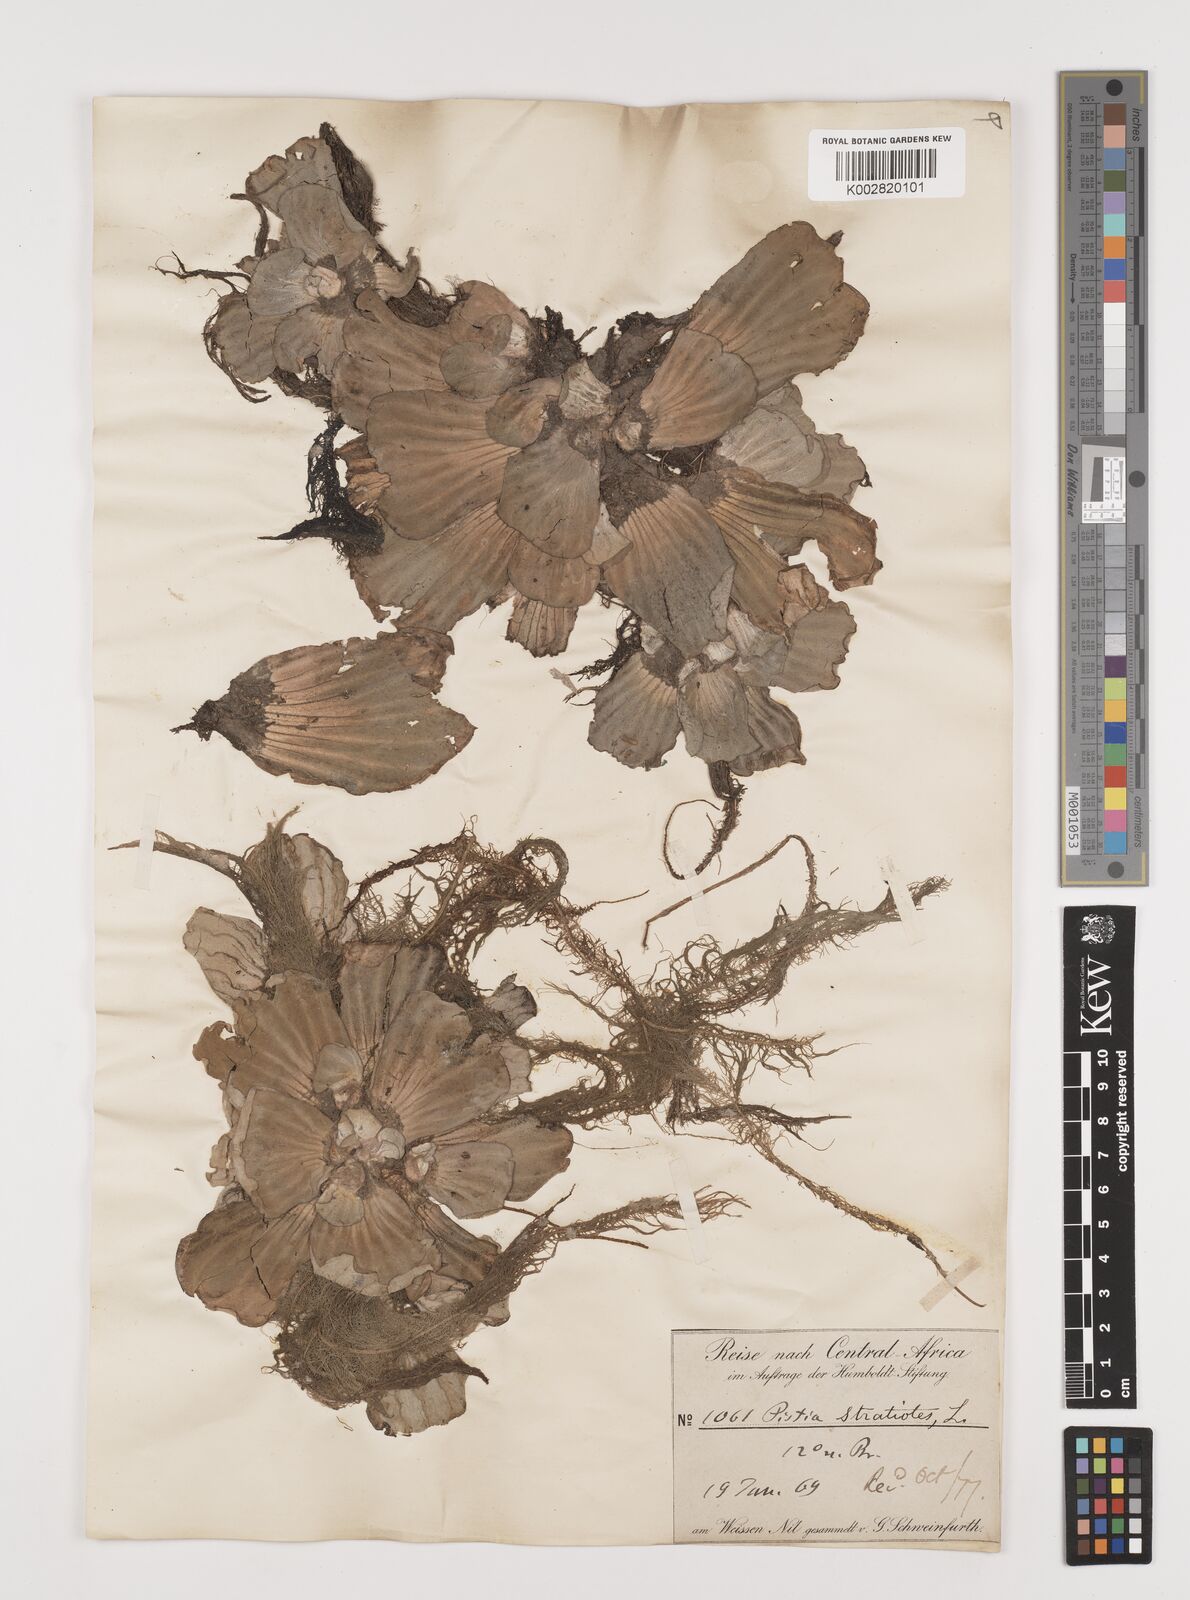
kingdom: Plantae
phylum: Tracheophyta
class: Liliopsida
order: Alismatales
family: Araceae
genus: Pistia
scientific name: Pistia stratiotes
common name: Water lettuce
